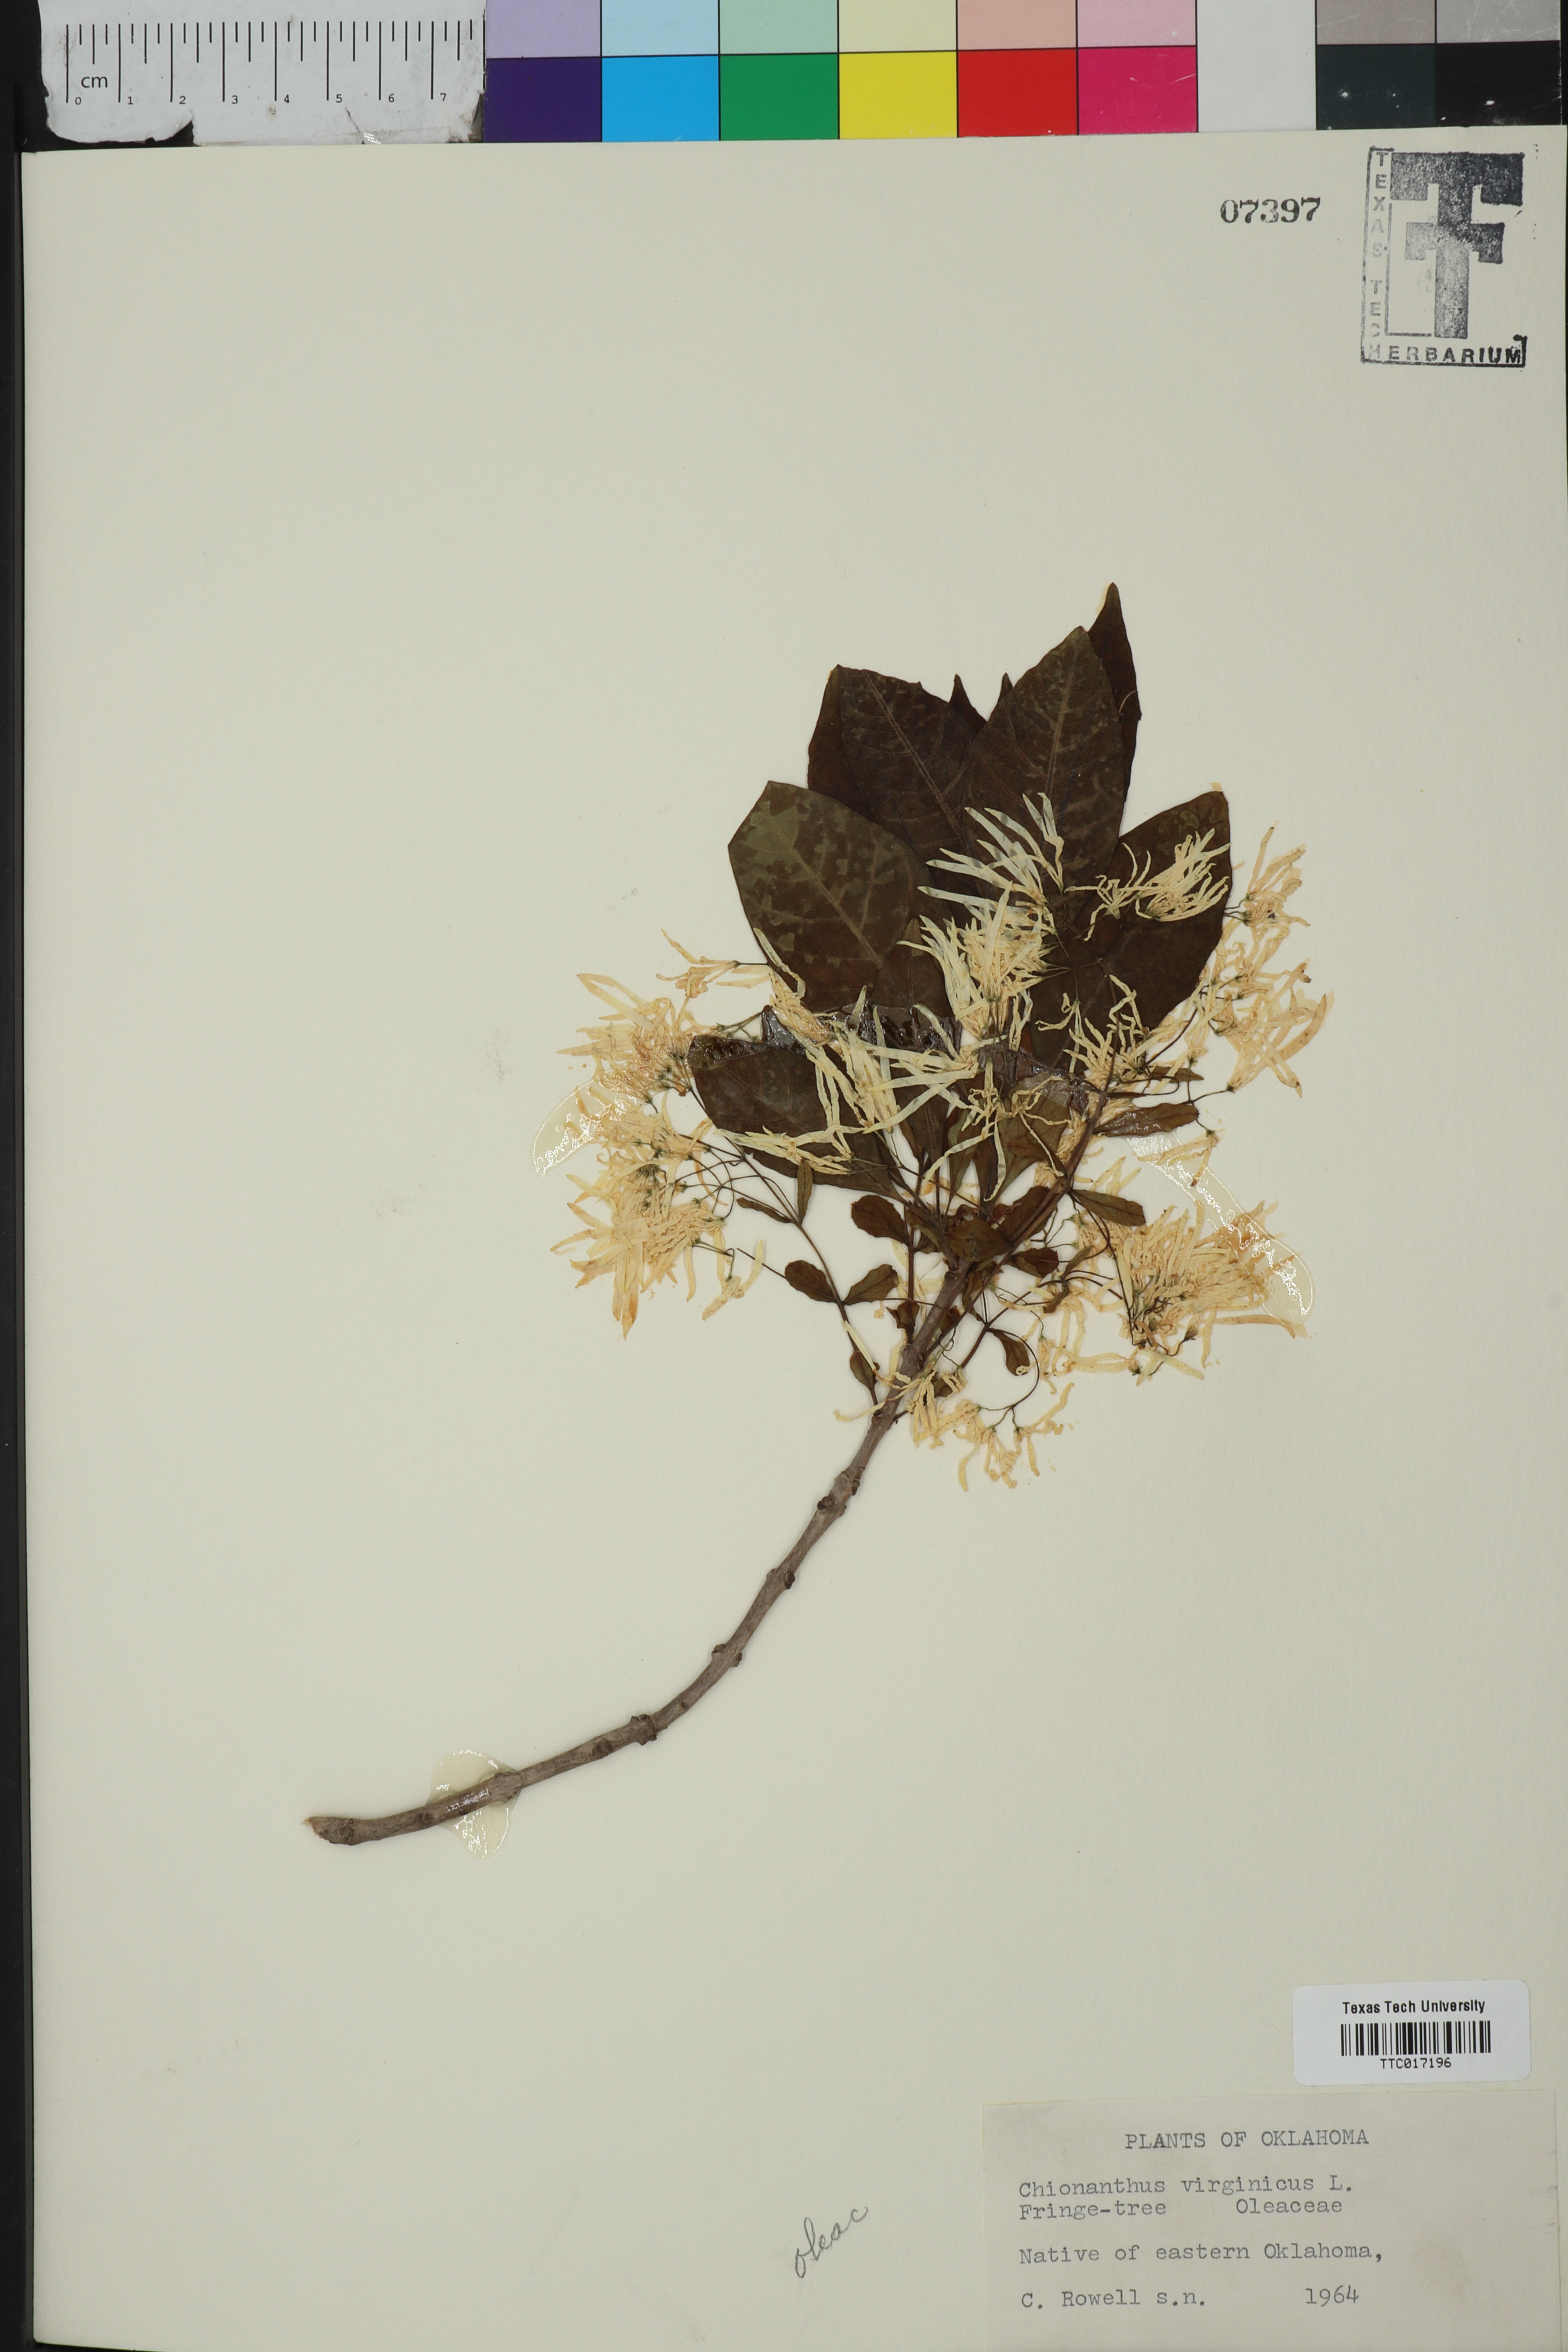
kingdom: Plantae
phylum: Tracheophyta
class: Magnoliopsida
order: Lamiales
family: Oleaceae
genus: Chionanthus
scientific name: Chionanthus virginicus
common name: American fringetree
